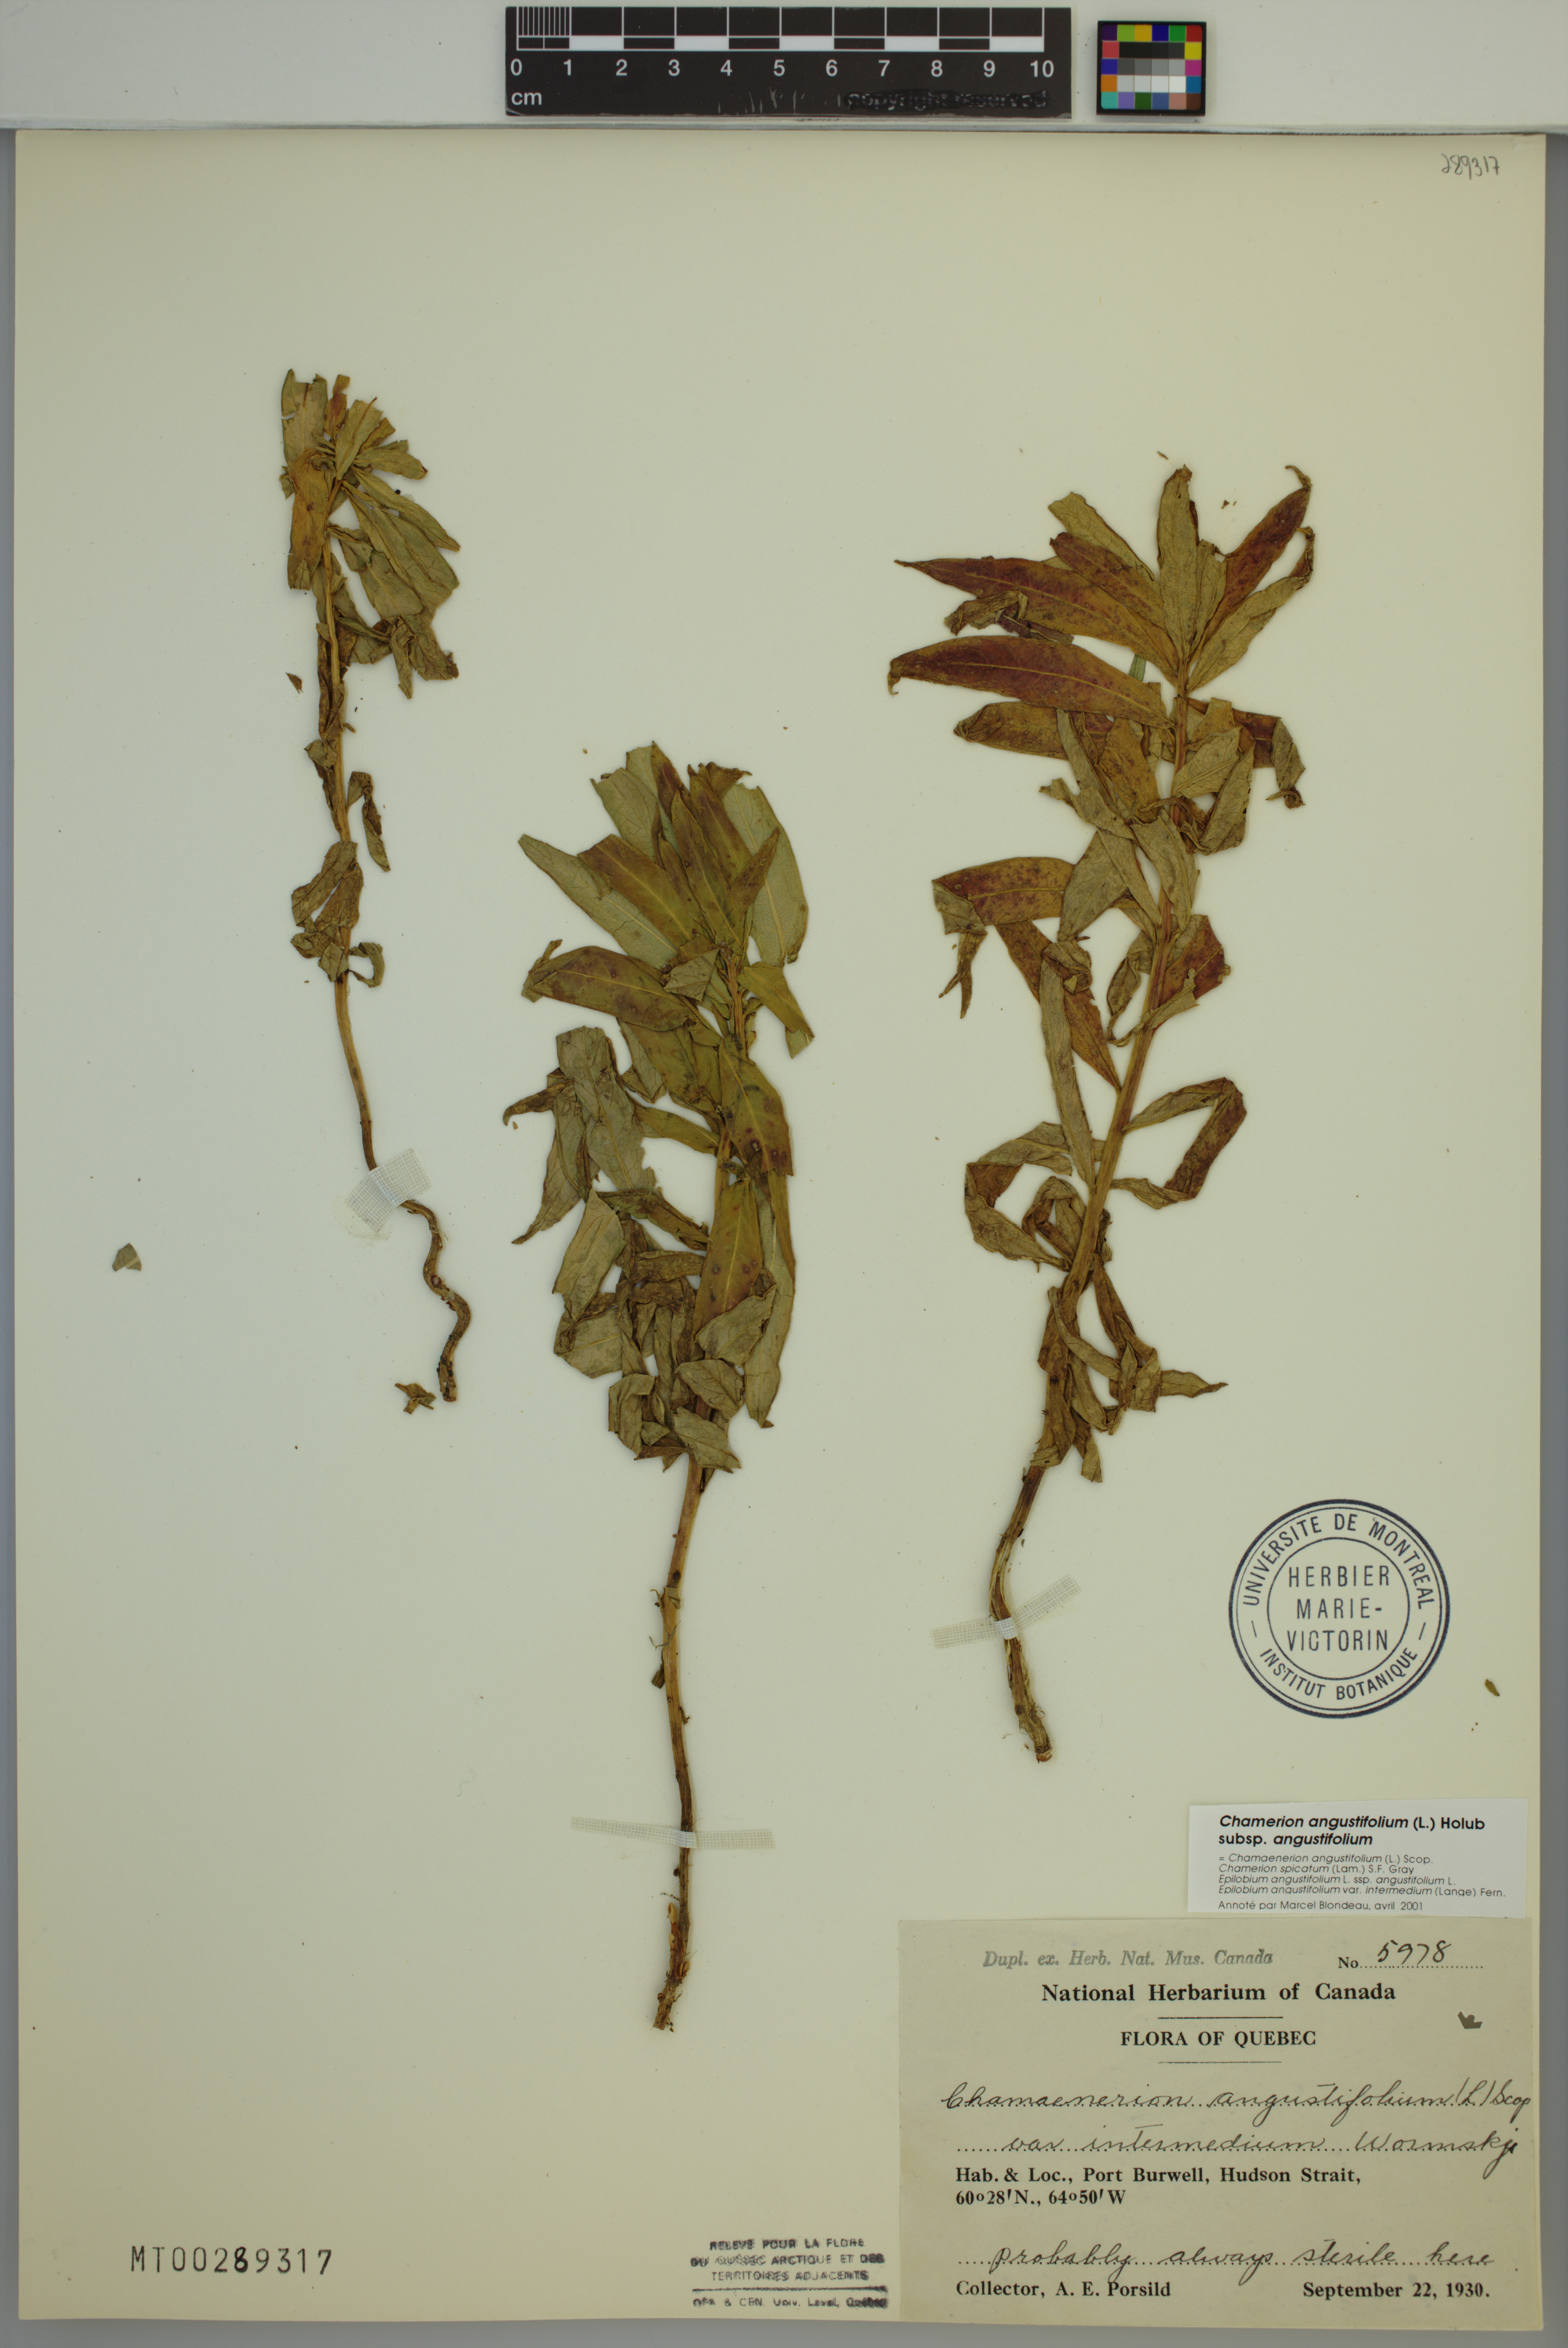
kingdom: Plantae
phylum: Tracheophyta
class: Magnoliopsida
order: Myrtales
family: Onagraceae
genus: Chamaenerion
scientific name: Chamaenerion angustifolium
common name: Fireweed
